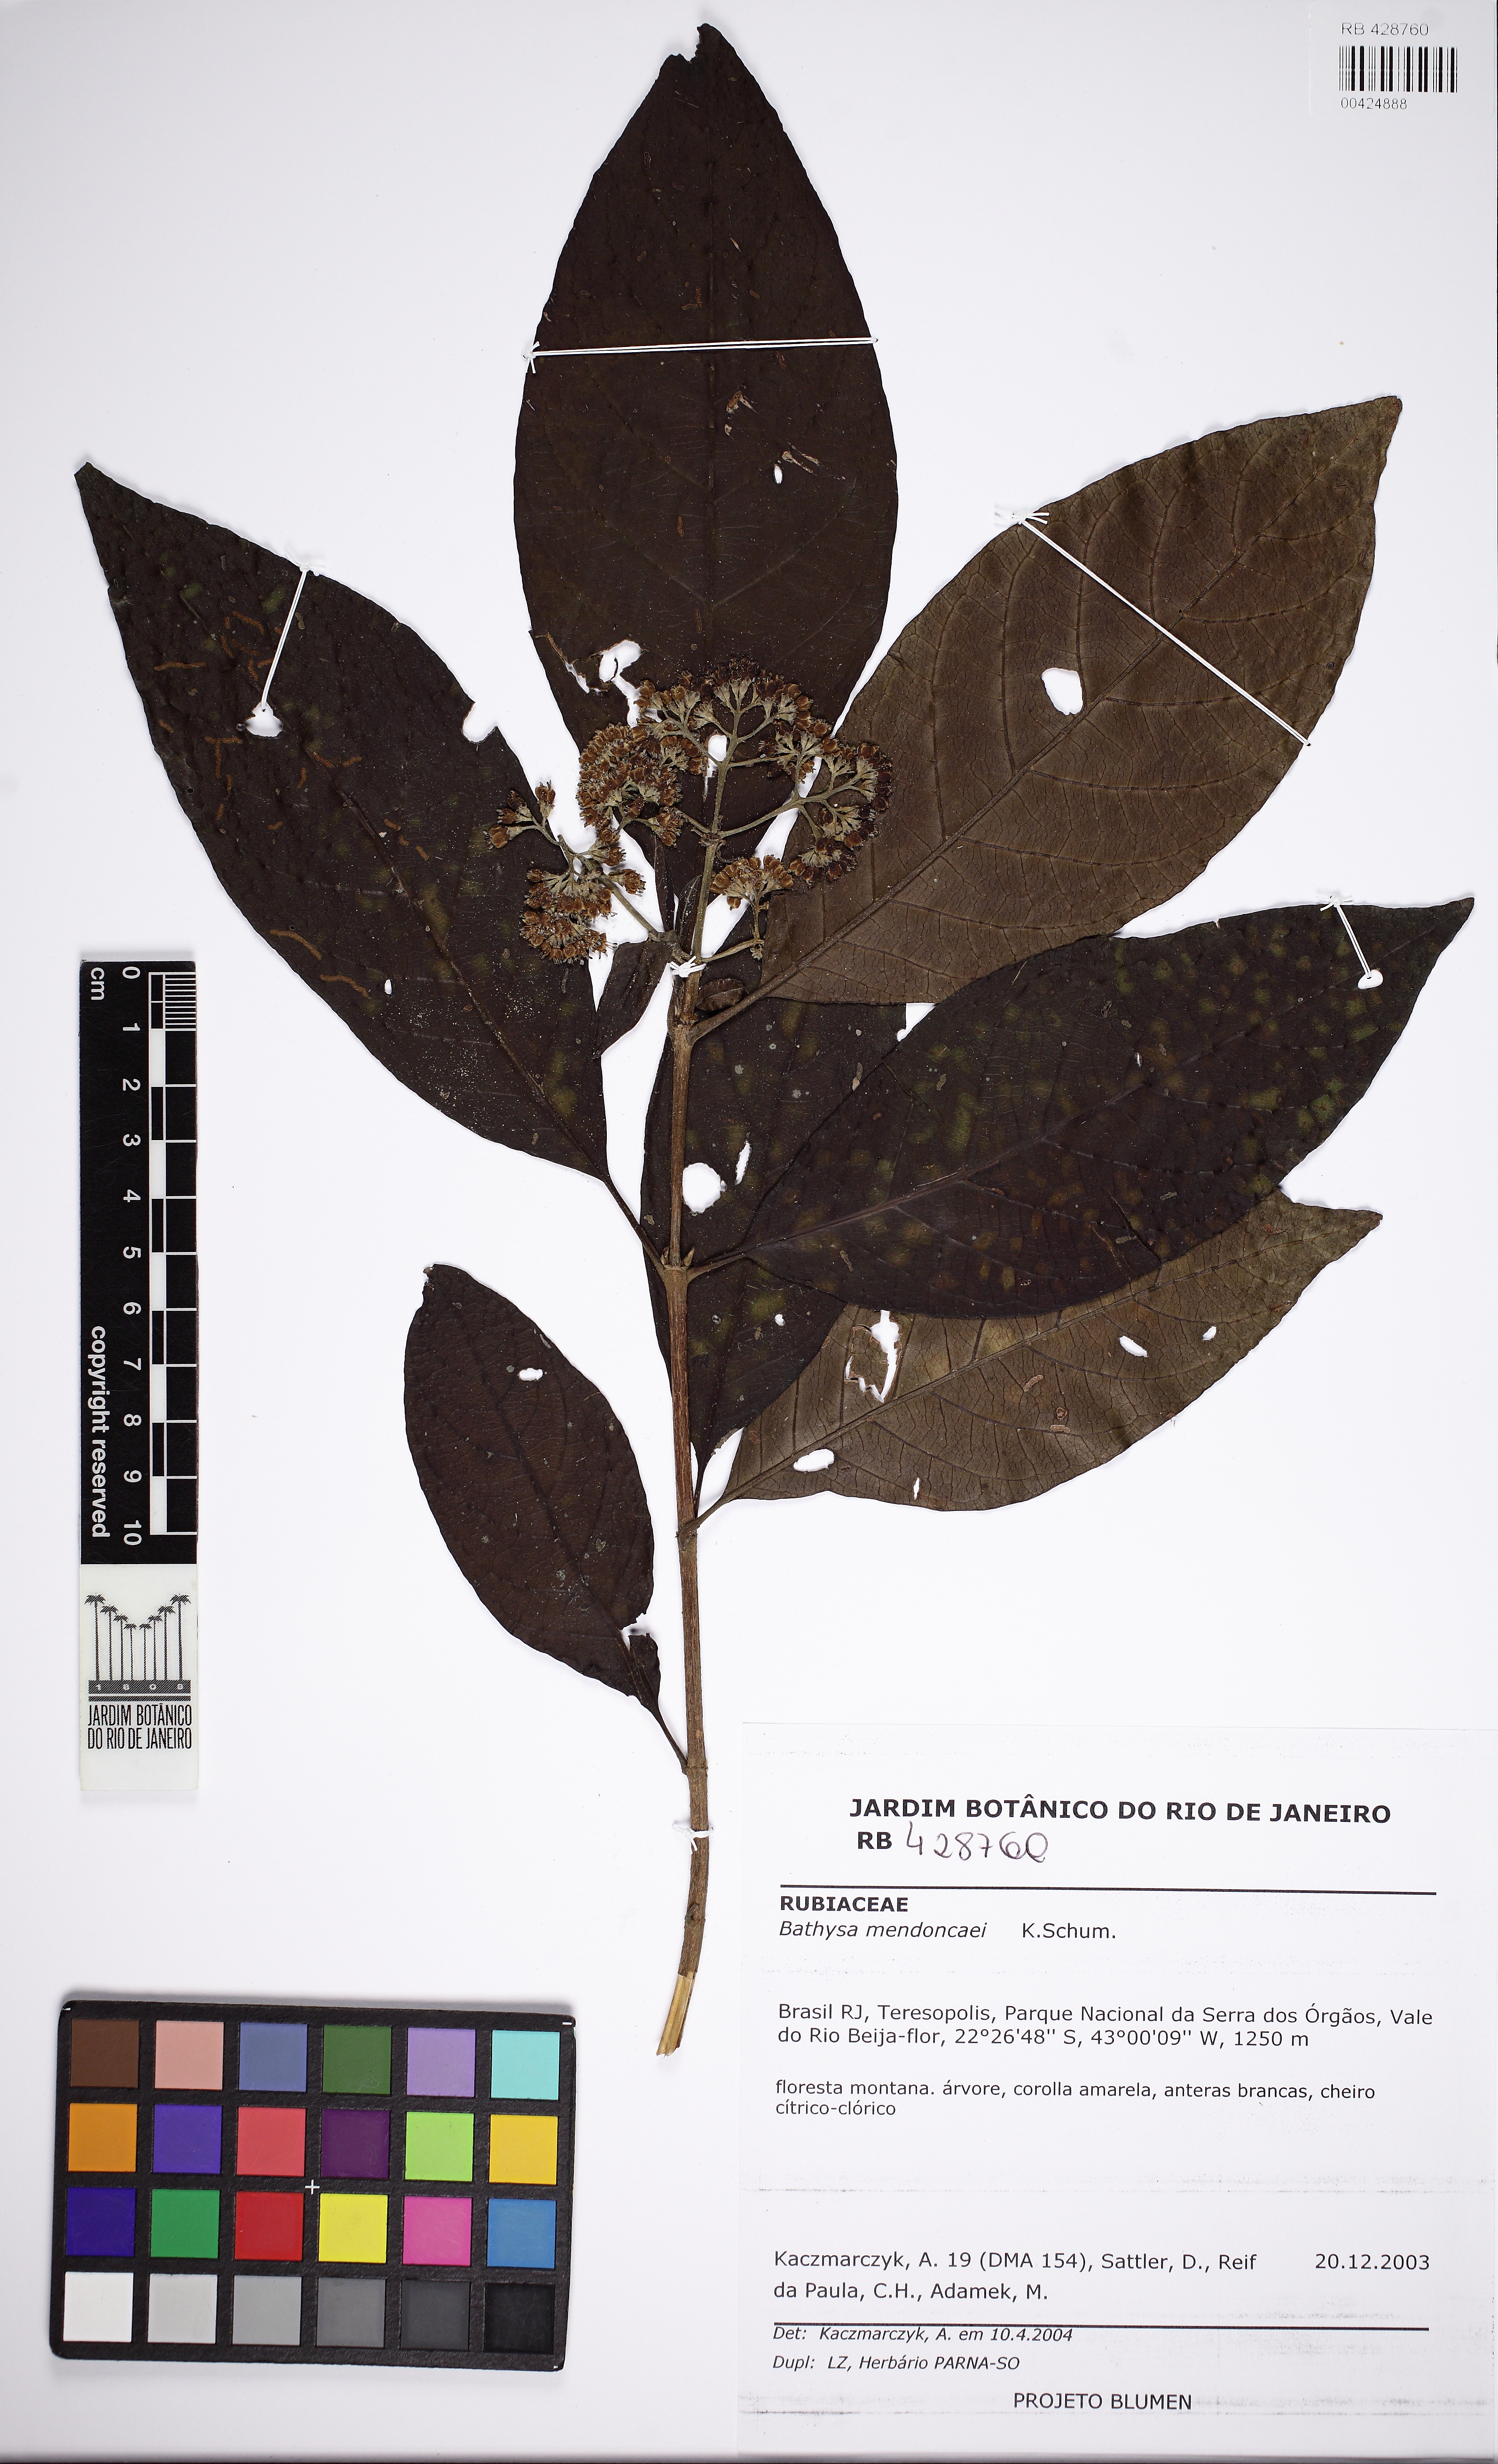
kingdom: Plantae
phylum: Tracheophyta
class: Magnoliopsida
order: Gentianales
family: Rubiaceae
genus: Bathysa
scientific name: Bathysa mendoncaei
